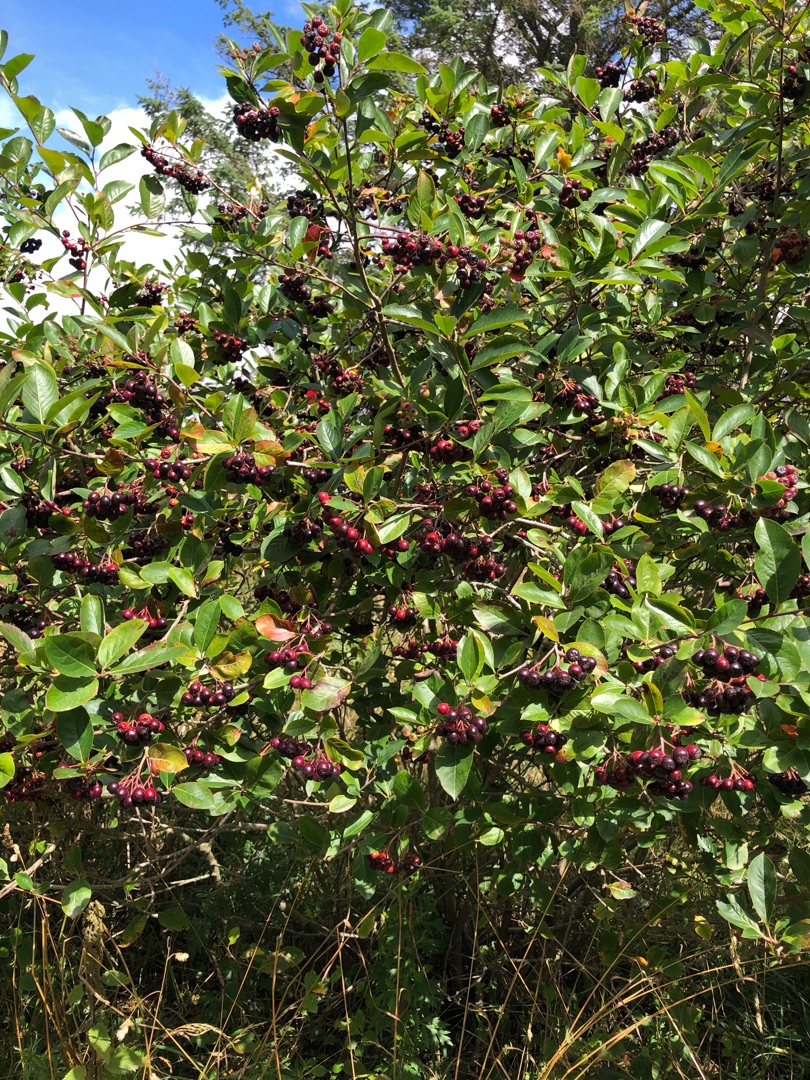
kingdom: Plantae
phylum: Tracheophyta
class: Magnoliopsida
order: Rosales
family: Rosaceae
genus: Aronia
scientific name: Aronia melanocarpa
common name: Sortfrugtet surbær
